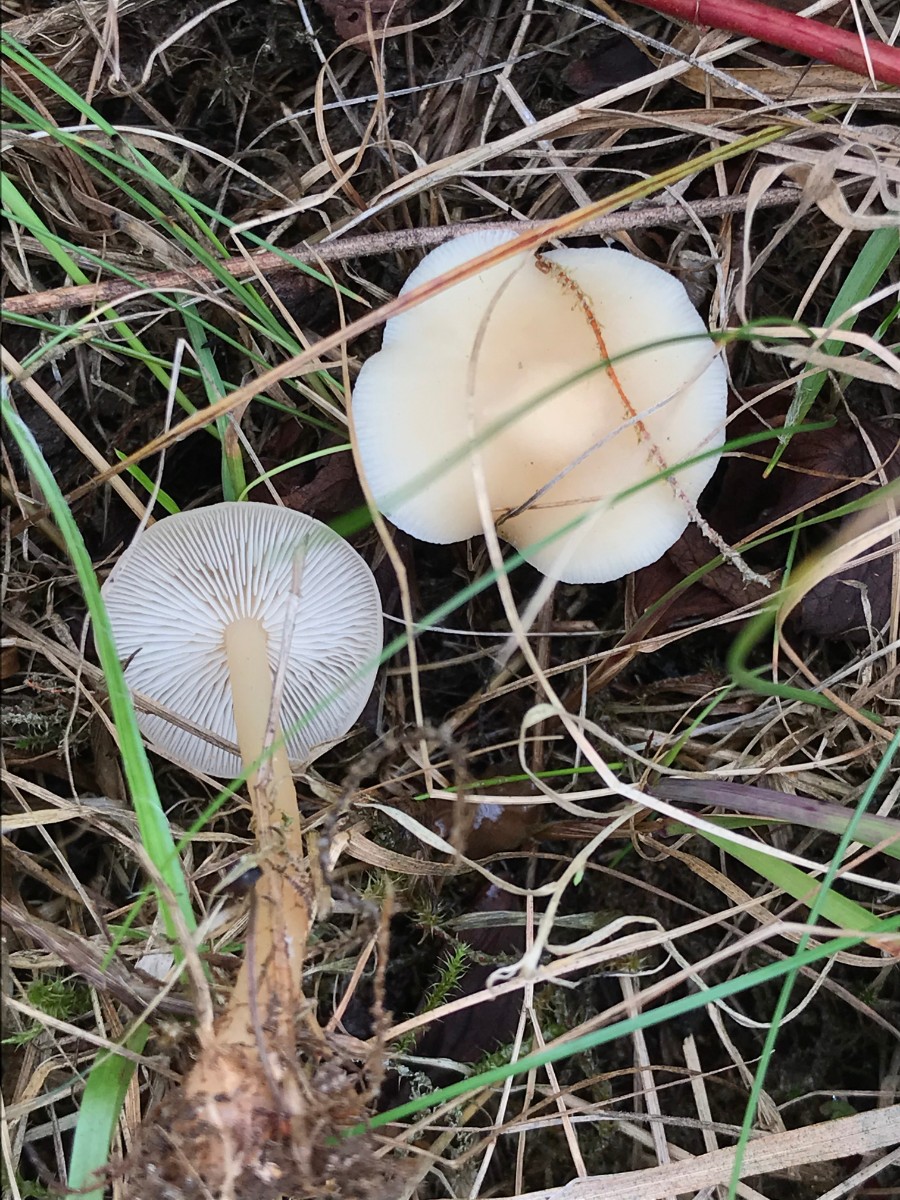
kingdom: Fungi
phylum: Basidiomycota
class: Agaricomycetes
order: Agaricales
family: Omphalotaceae
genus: Gymnopus
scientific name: Gymnopus aquosus
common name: bleg fladhat
